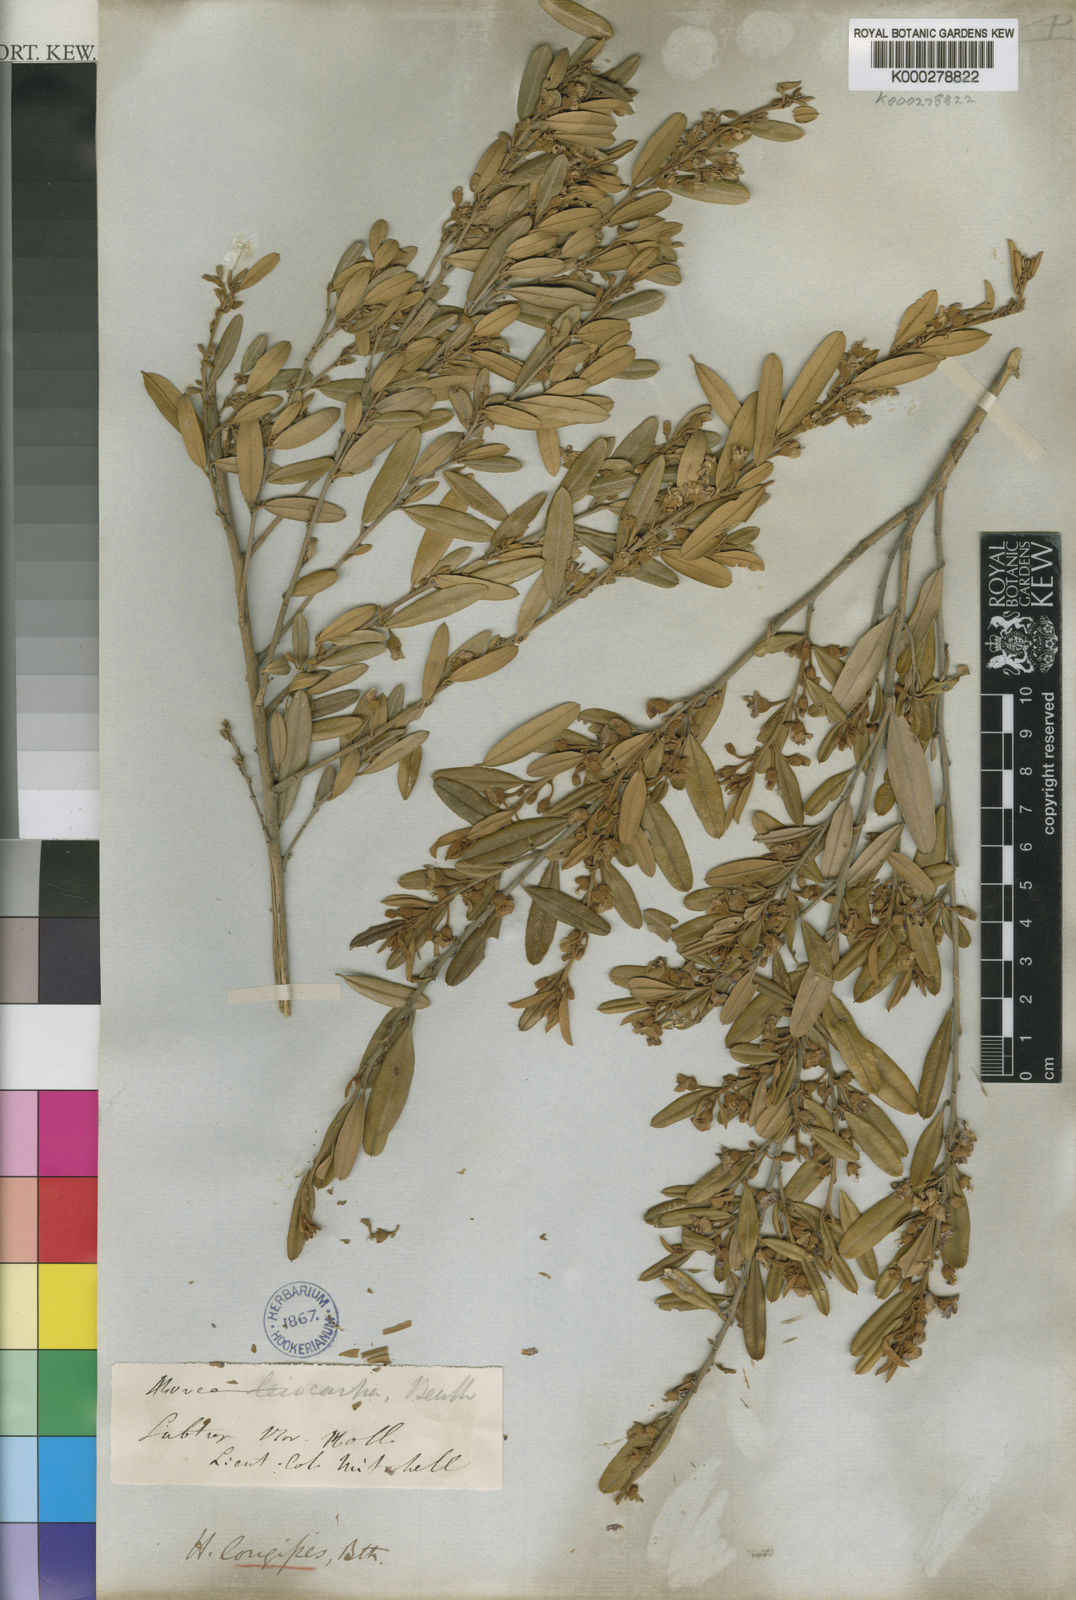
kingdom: Plantae
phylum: Tracheophyta
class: Magnoliopsida
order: Fabales
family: Fabaceae
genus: Hovea
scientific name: Hovea longipes
